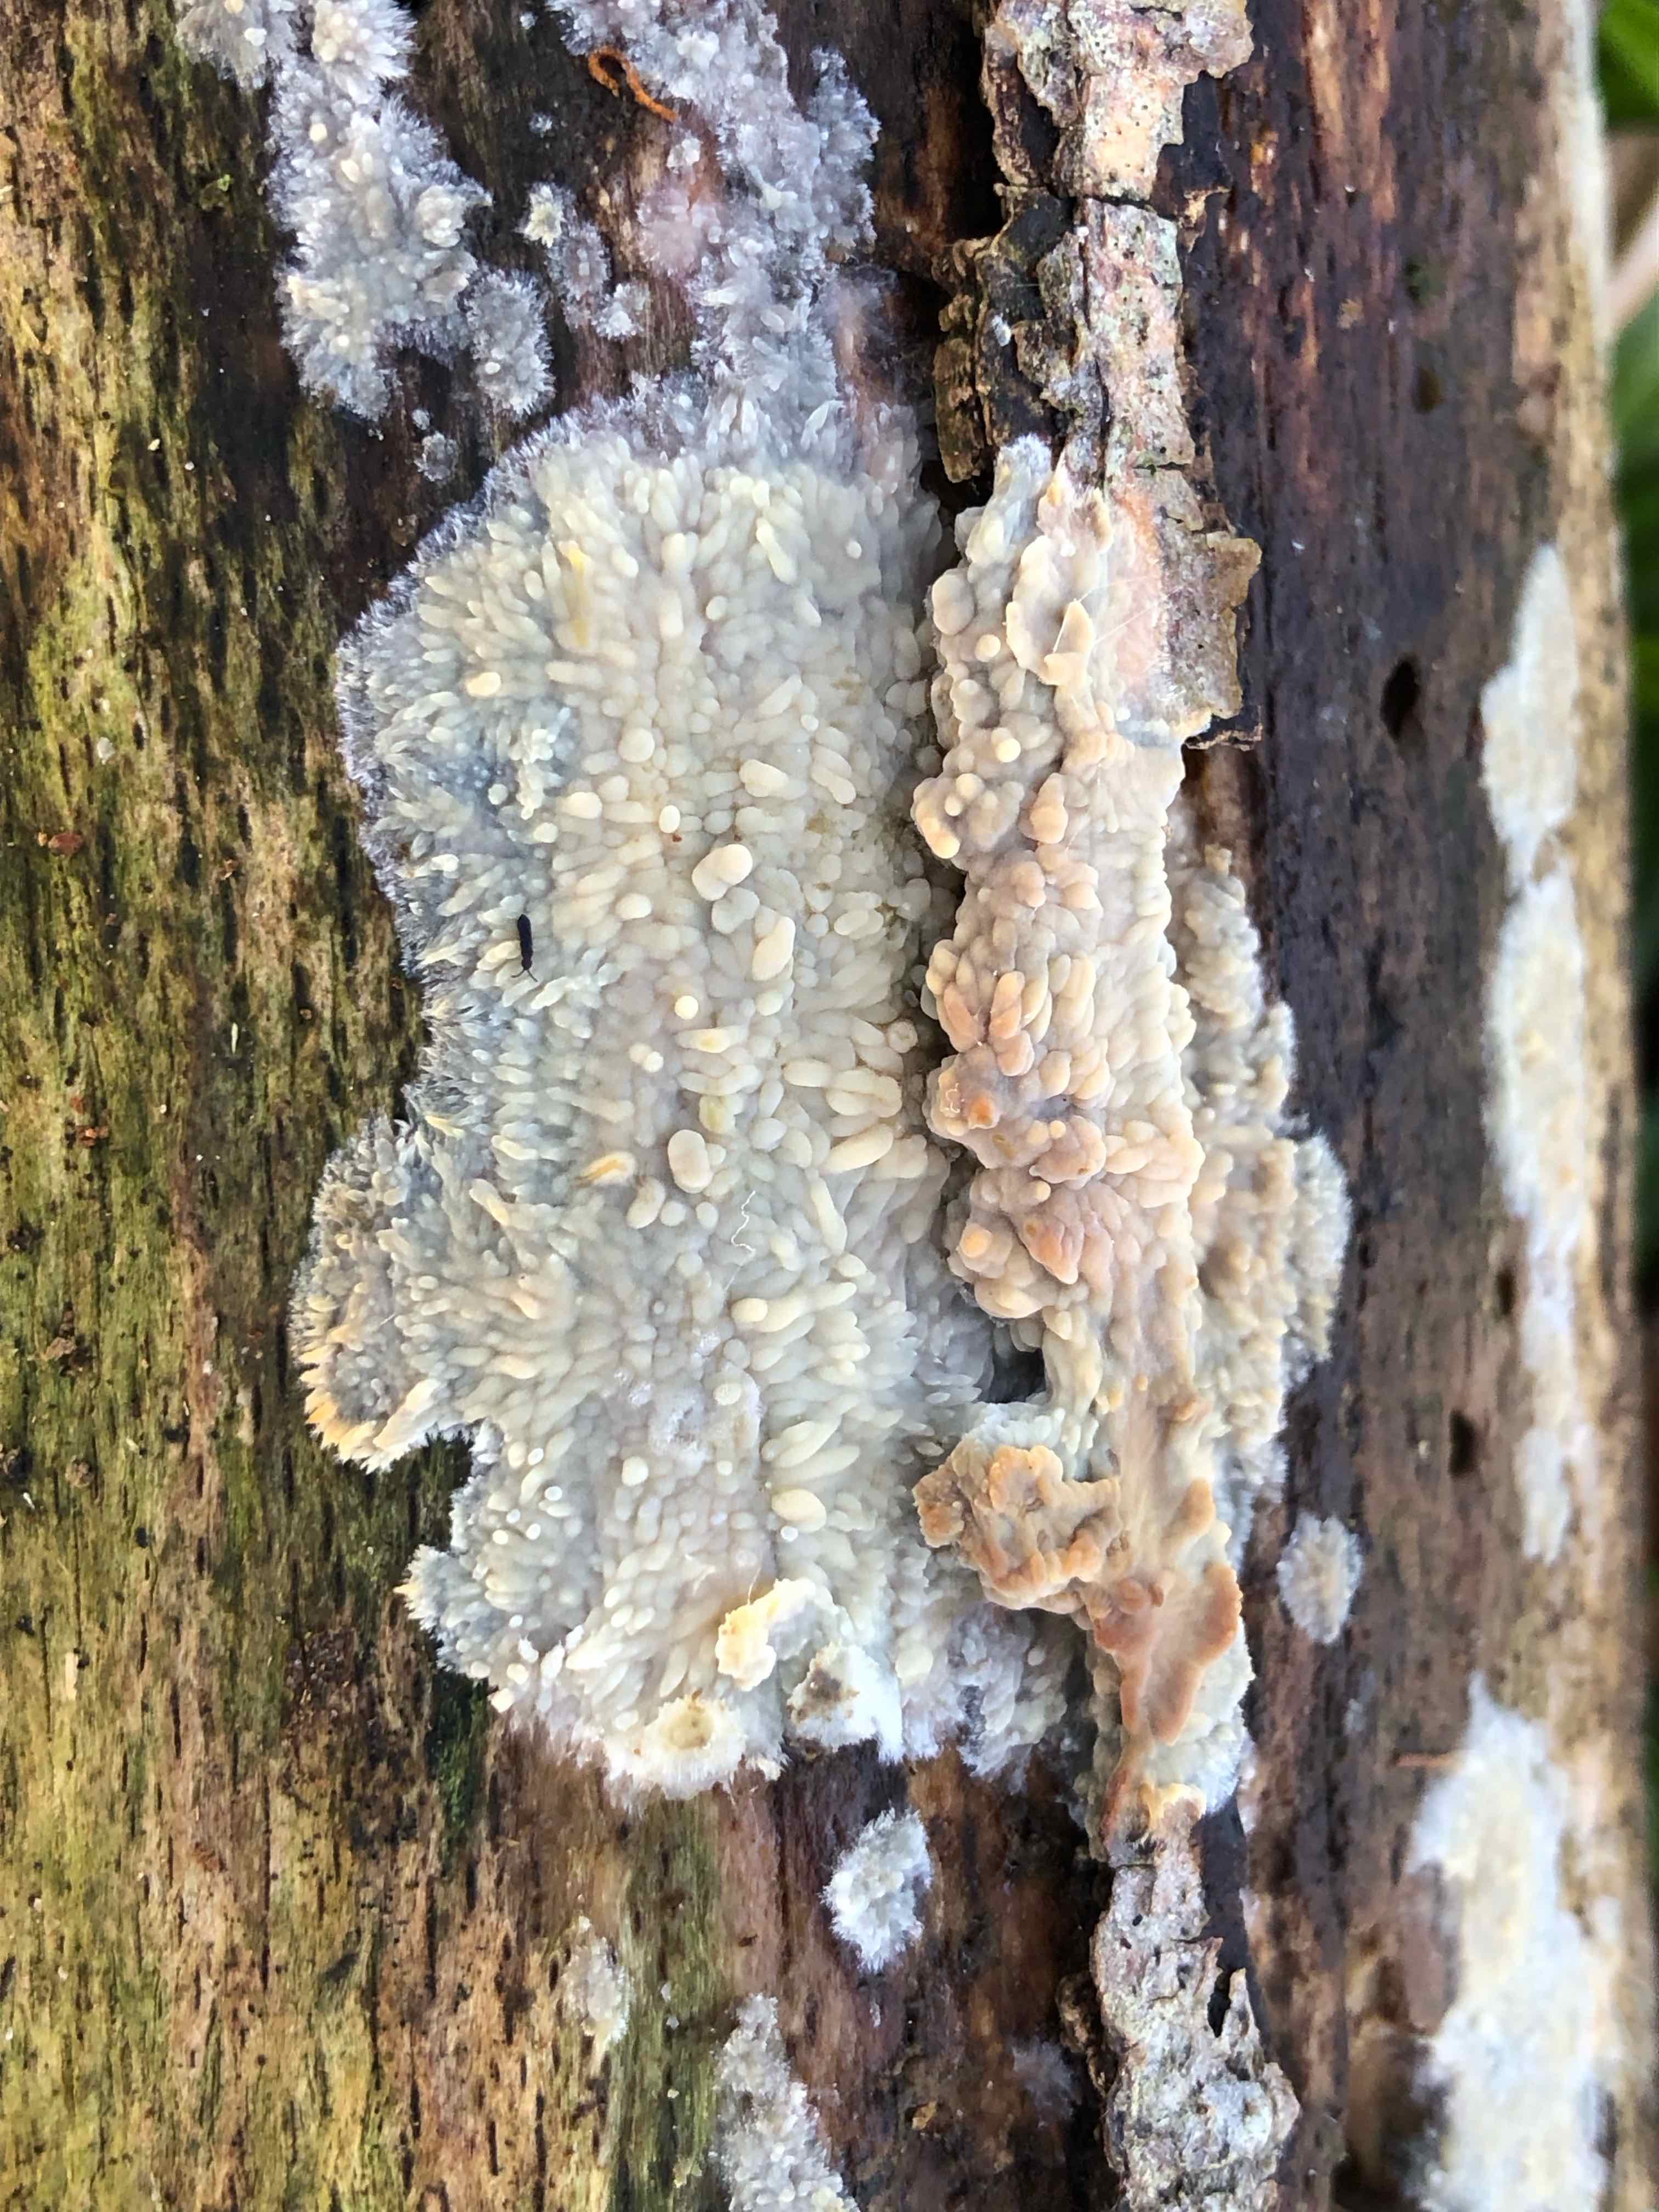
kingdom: Fungi
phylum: Basidiomycota
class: Agaricomycetes
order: Polyporales
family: Meruliaceae
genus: Phlebia
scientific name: Phlebia radiata
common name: stråle-åresvamp
